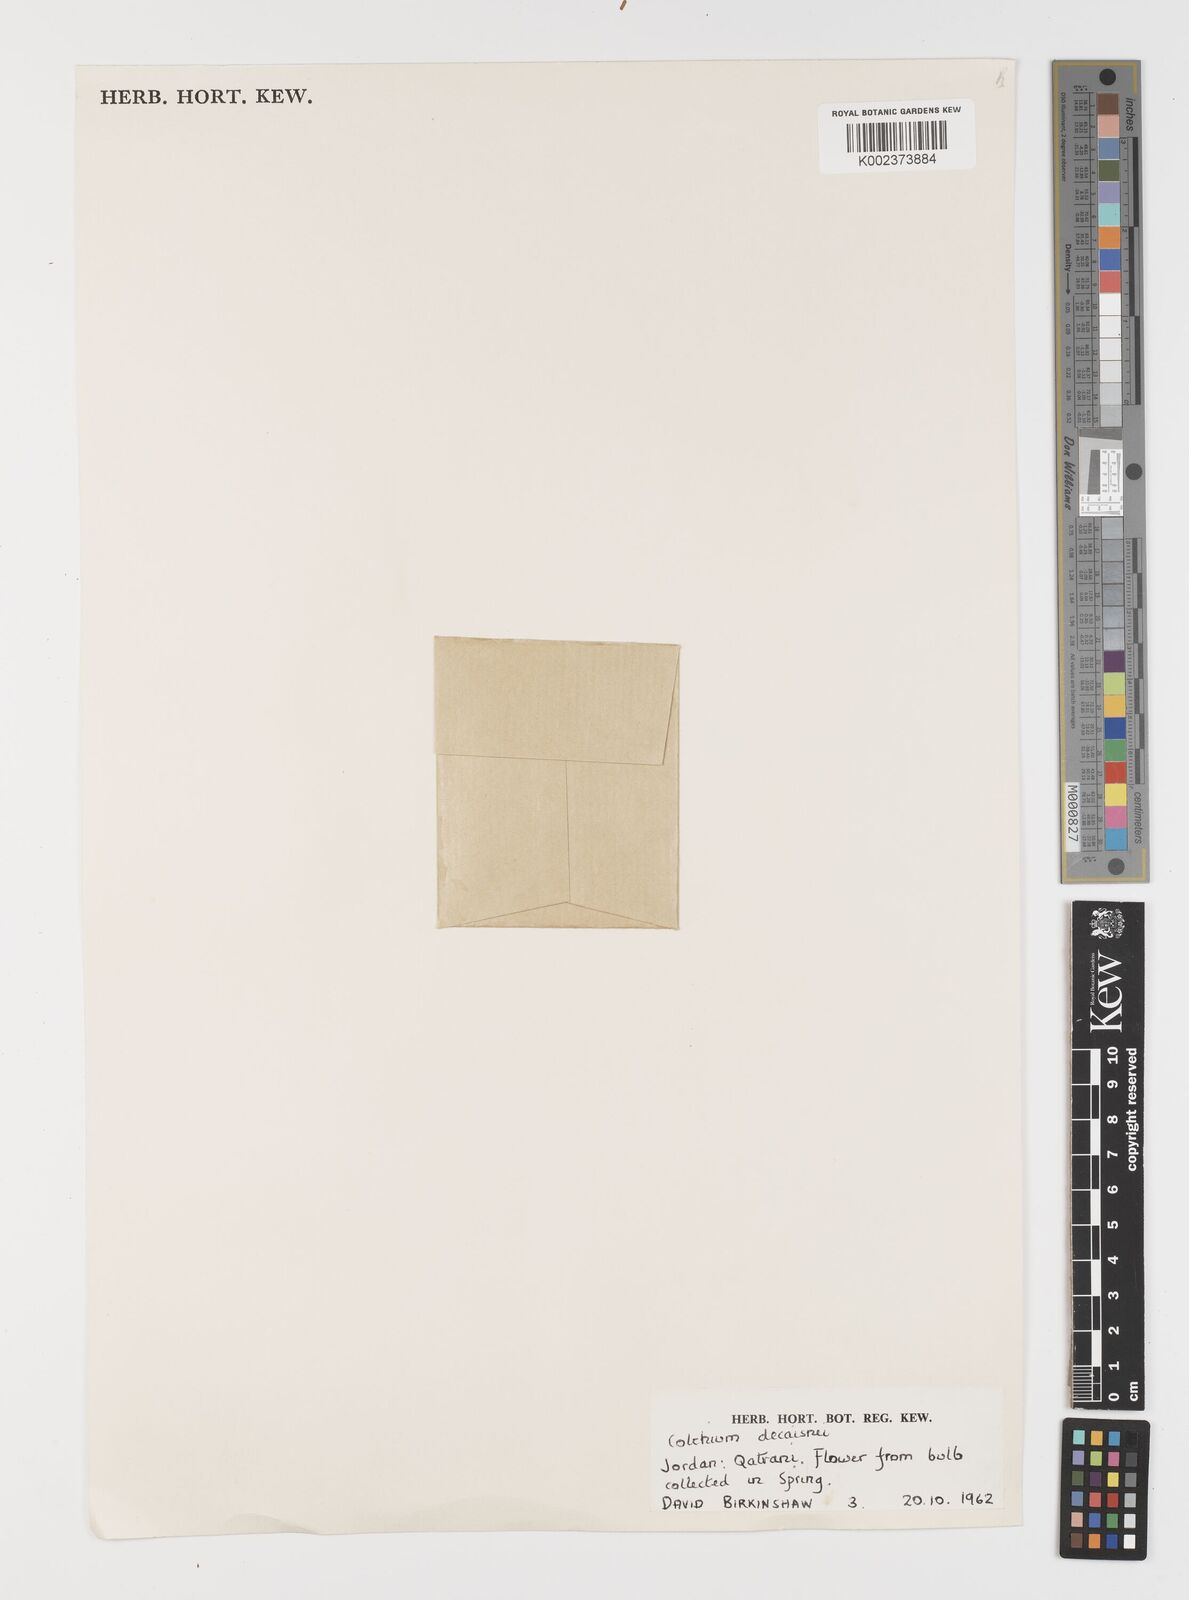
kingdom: Plantae
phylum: Tracheophyta
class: Liliopsida
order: Liliales
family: Colchicaceae
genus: Colchicum
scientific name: Colchicum decaisnei
